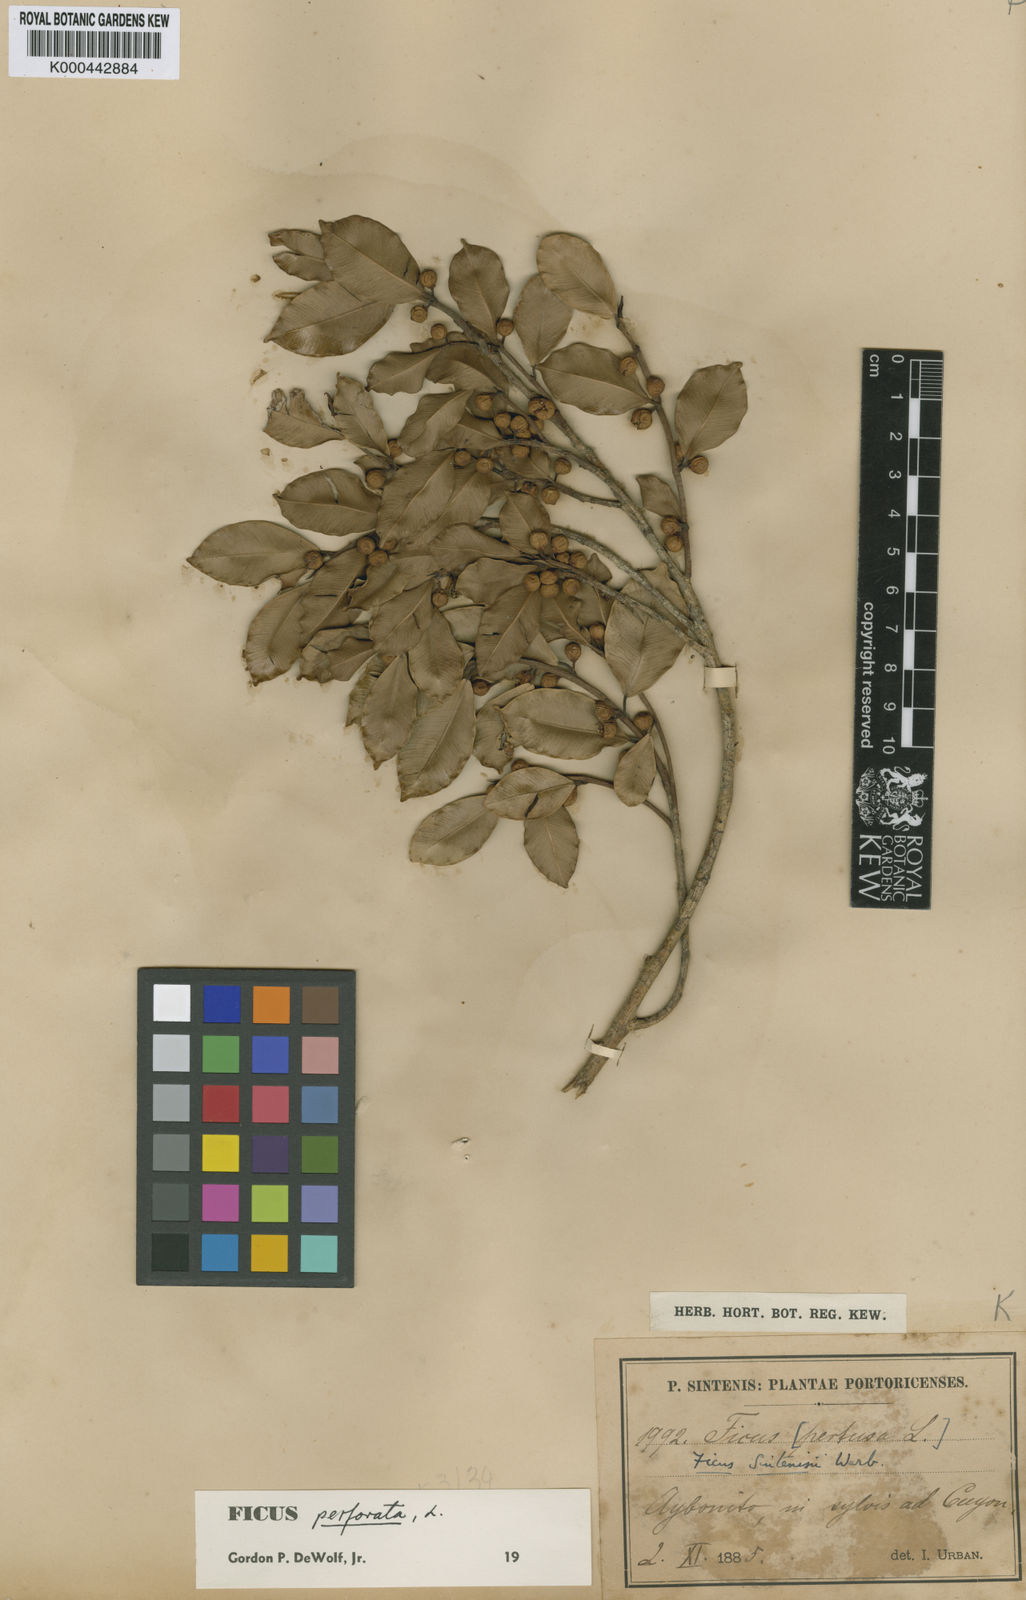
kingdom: Plantae
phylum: Tracheophyta
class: Magnoliopsida
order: Rosales
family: Moraceae
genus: Ficus
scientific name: Ficus americana
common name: Jamaican cherry fig
